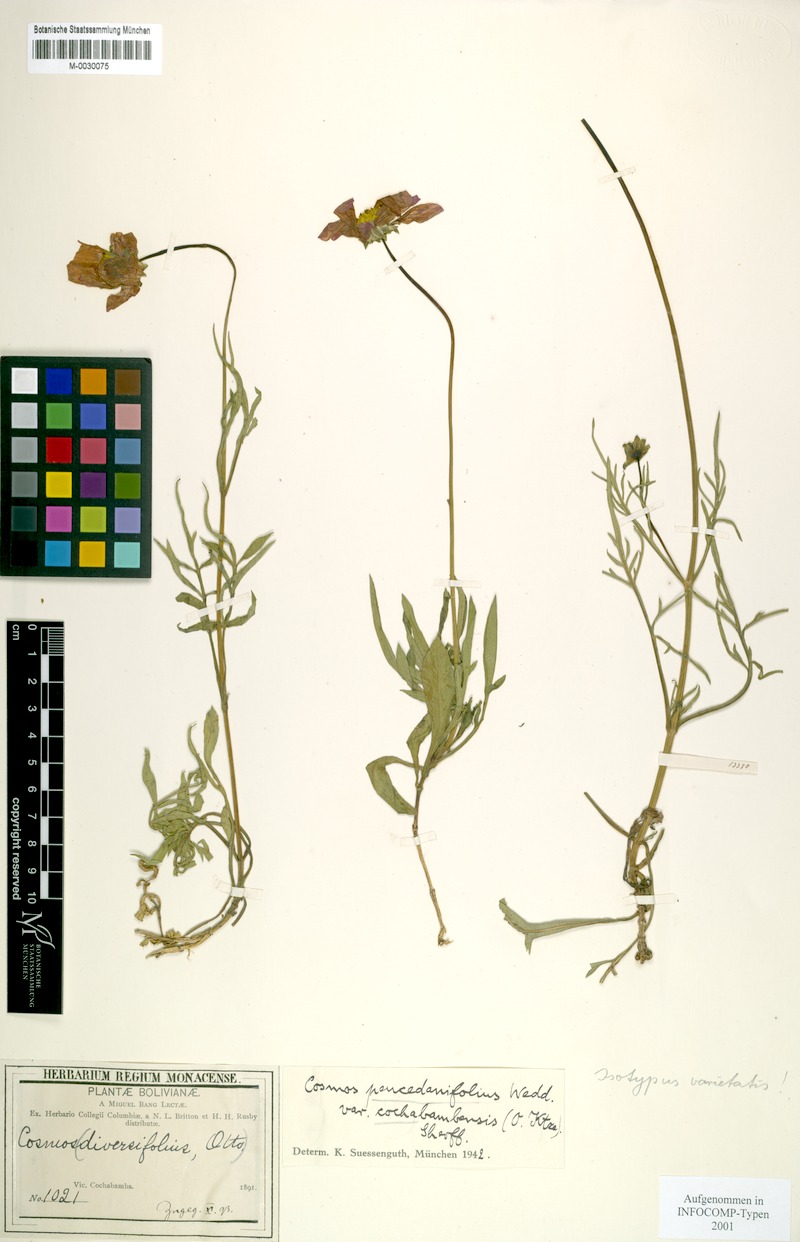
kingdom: Plantae
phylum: Tracheophyta
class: Magnoliopsida
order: Asterales
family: Asteraceae
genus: Cosmos
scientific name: Cosmos peucedanifolius
